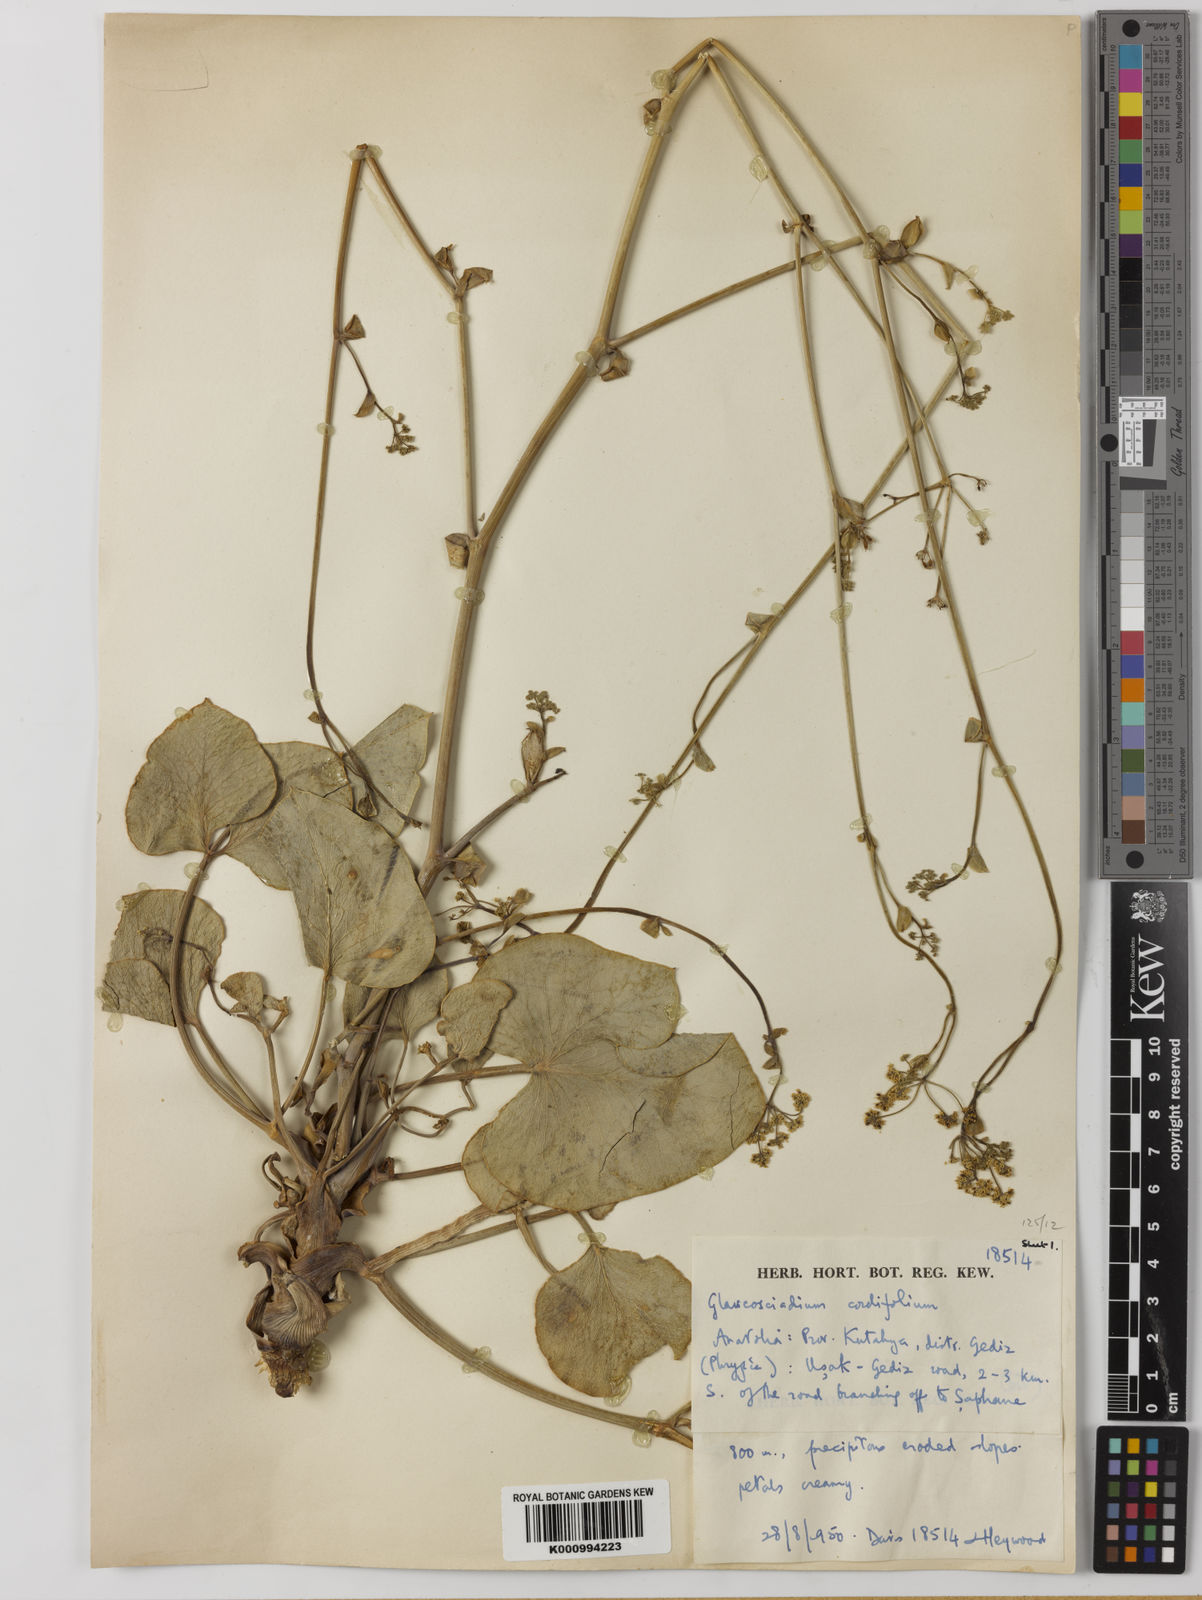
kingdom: Plantae
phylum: Tracheophyta
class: Magnoliopsida
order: Apiales
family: Apiaceae
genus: Glaucosciadium
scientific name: Glaucosciadium cordifolium
